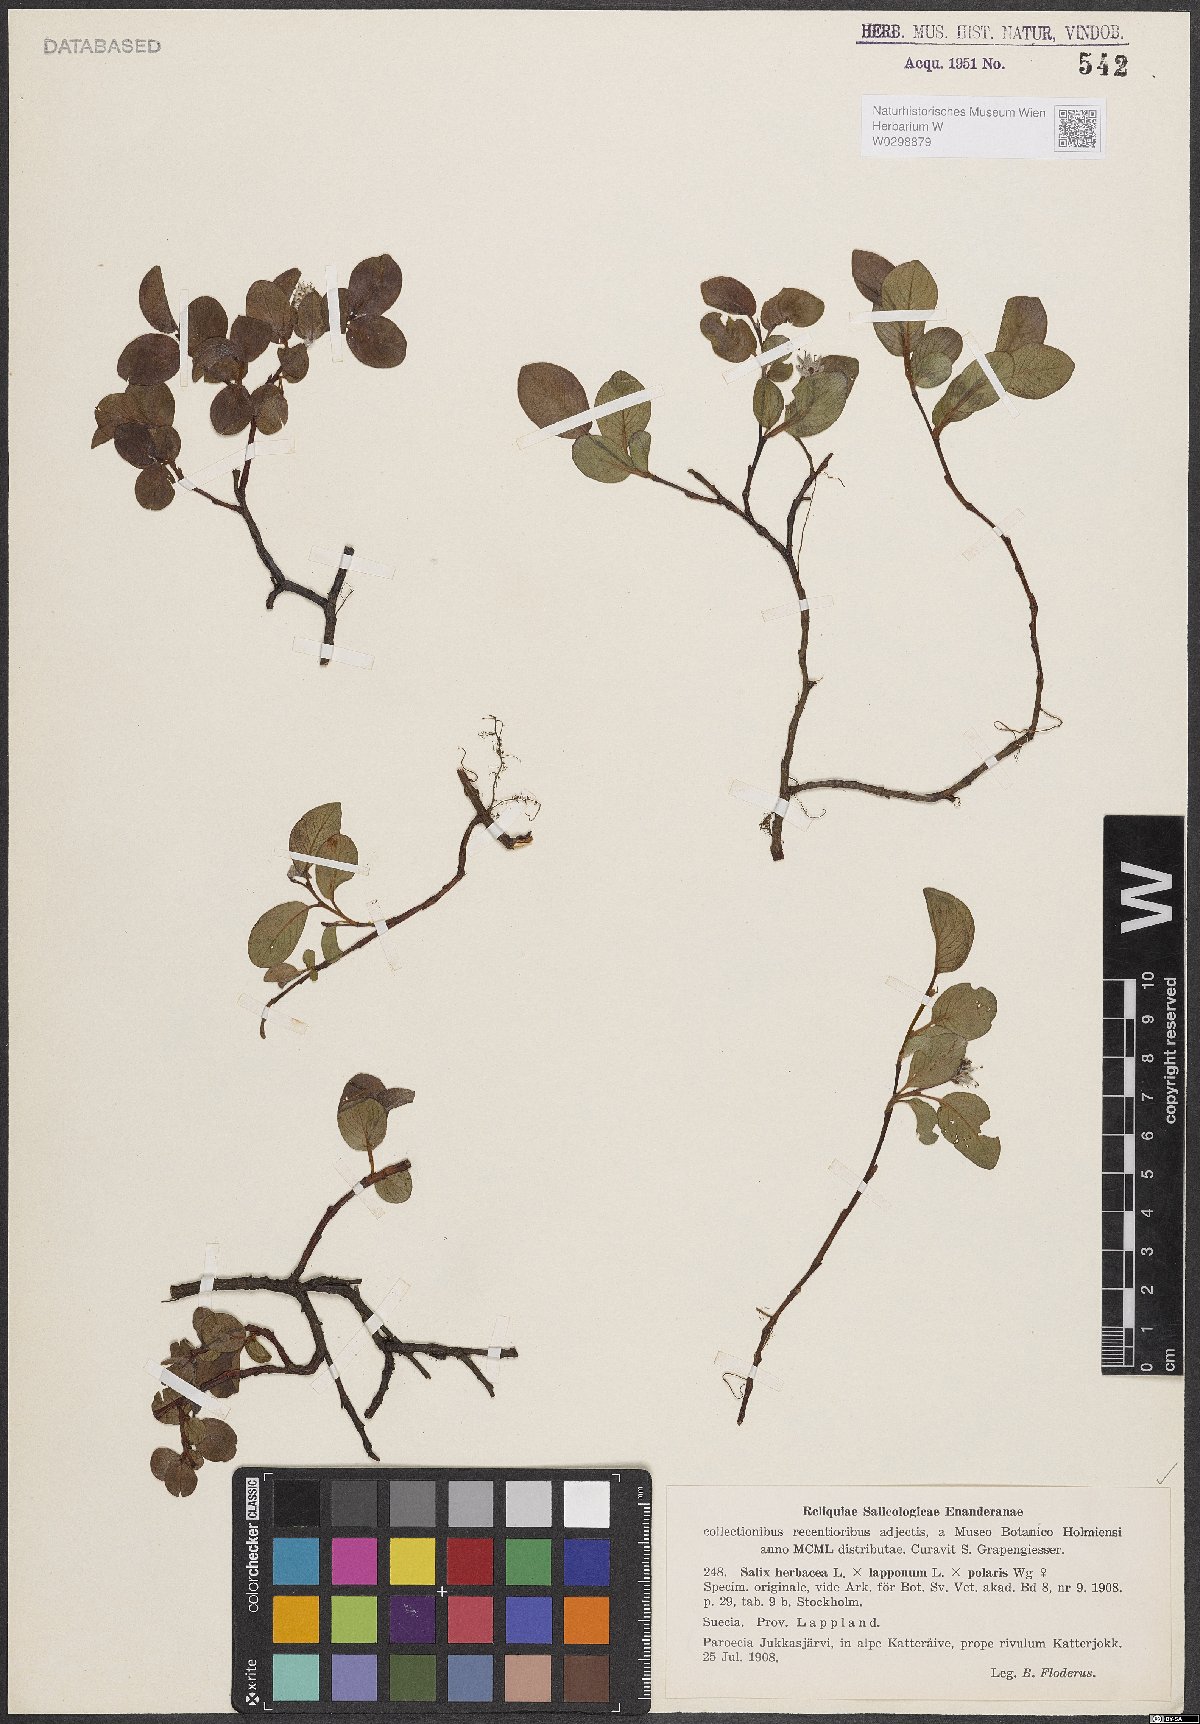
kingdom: Plantae
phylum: Tracheophyta
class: Magnoliopsida
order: Malpighiales
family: Salicaceae
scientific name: Salicaceae
